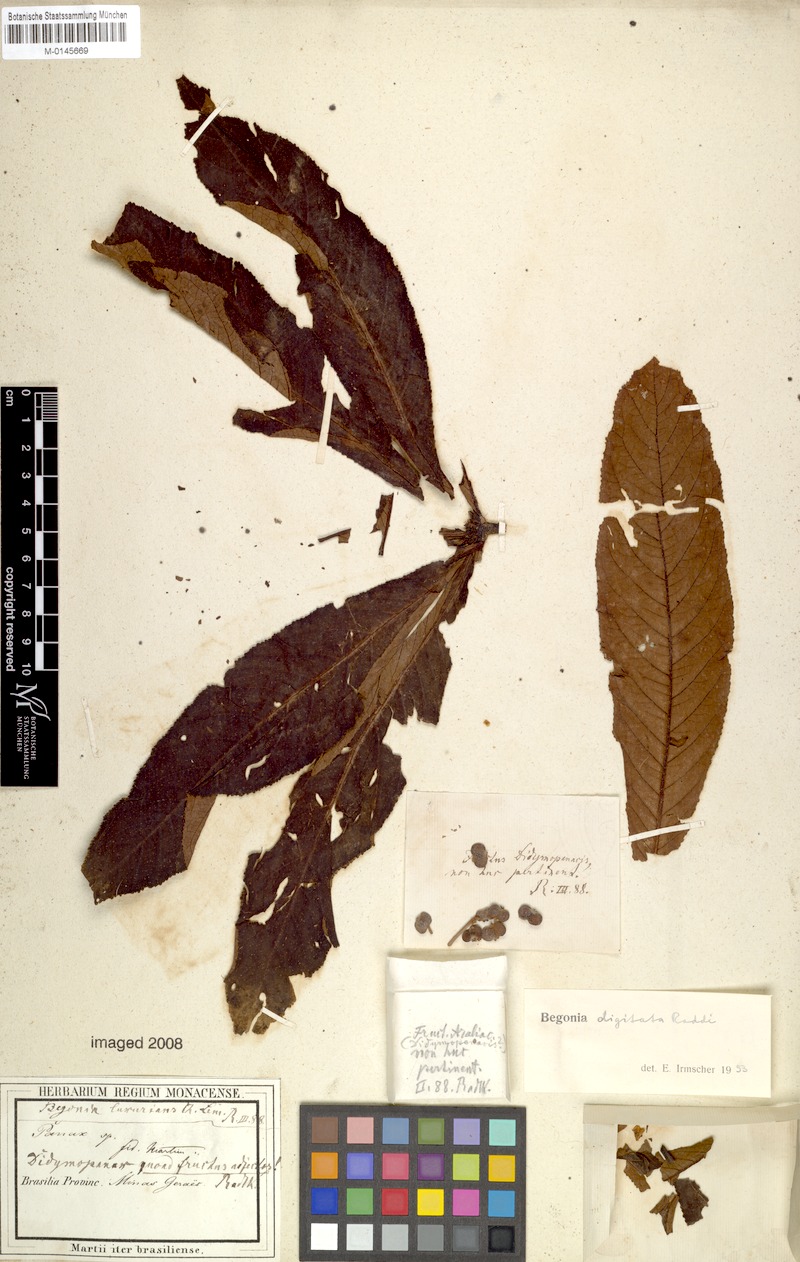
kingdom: Plantae
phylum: Tracheophyta
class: Magnoliopsida
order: Cucurbitales
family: Begoniaceae
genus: Begonia
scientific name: Begonia digitata
